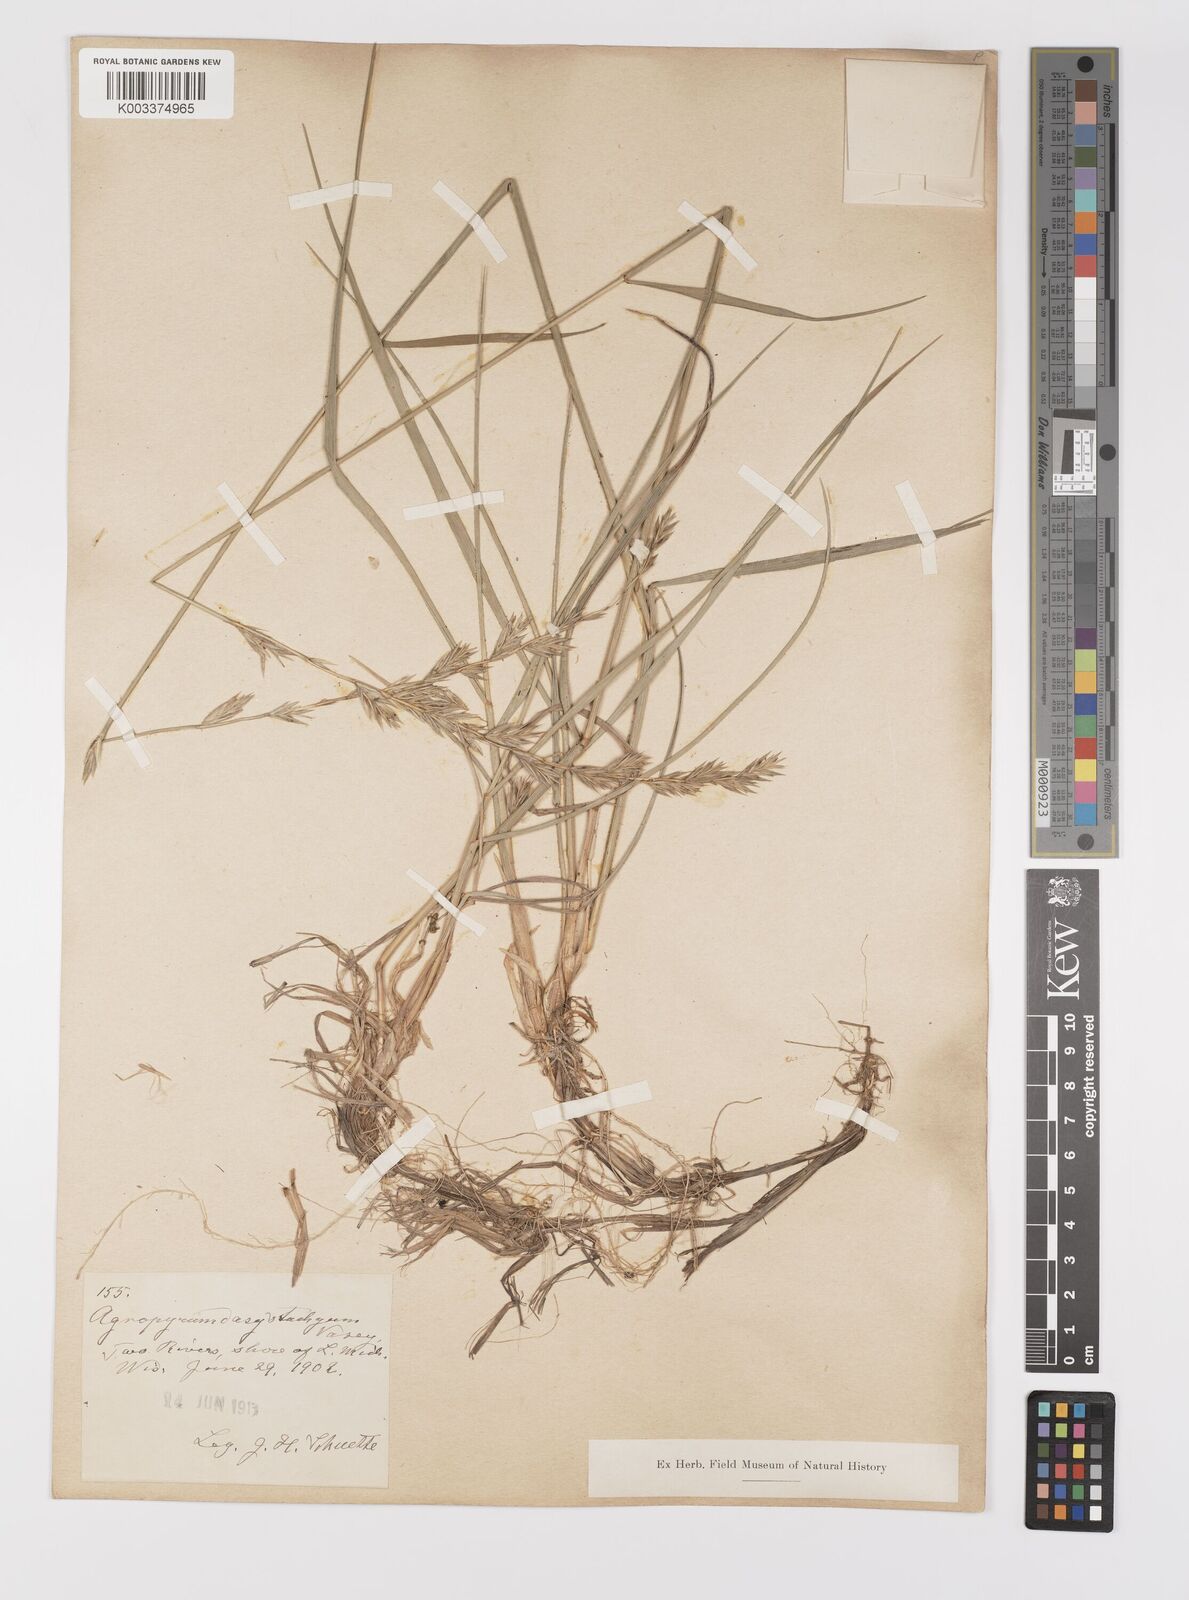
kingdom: Plantae
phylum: Tracheophyta
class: Liliopsida
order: Poales
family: Poaceae
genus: Elymus
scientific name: Elymus lanceolatus
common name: Thick-spike wheatgrass
